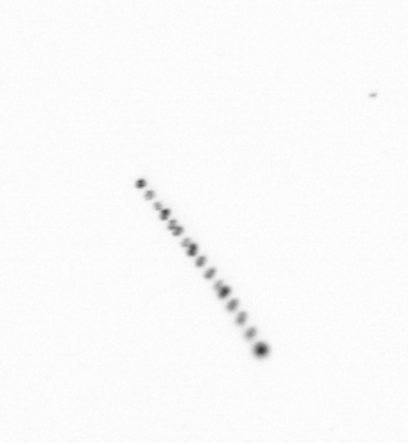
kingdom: Chromista
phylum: Ochrophyta
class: Bacillariophyceae
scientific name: Bacillariophyceae
